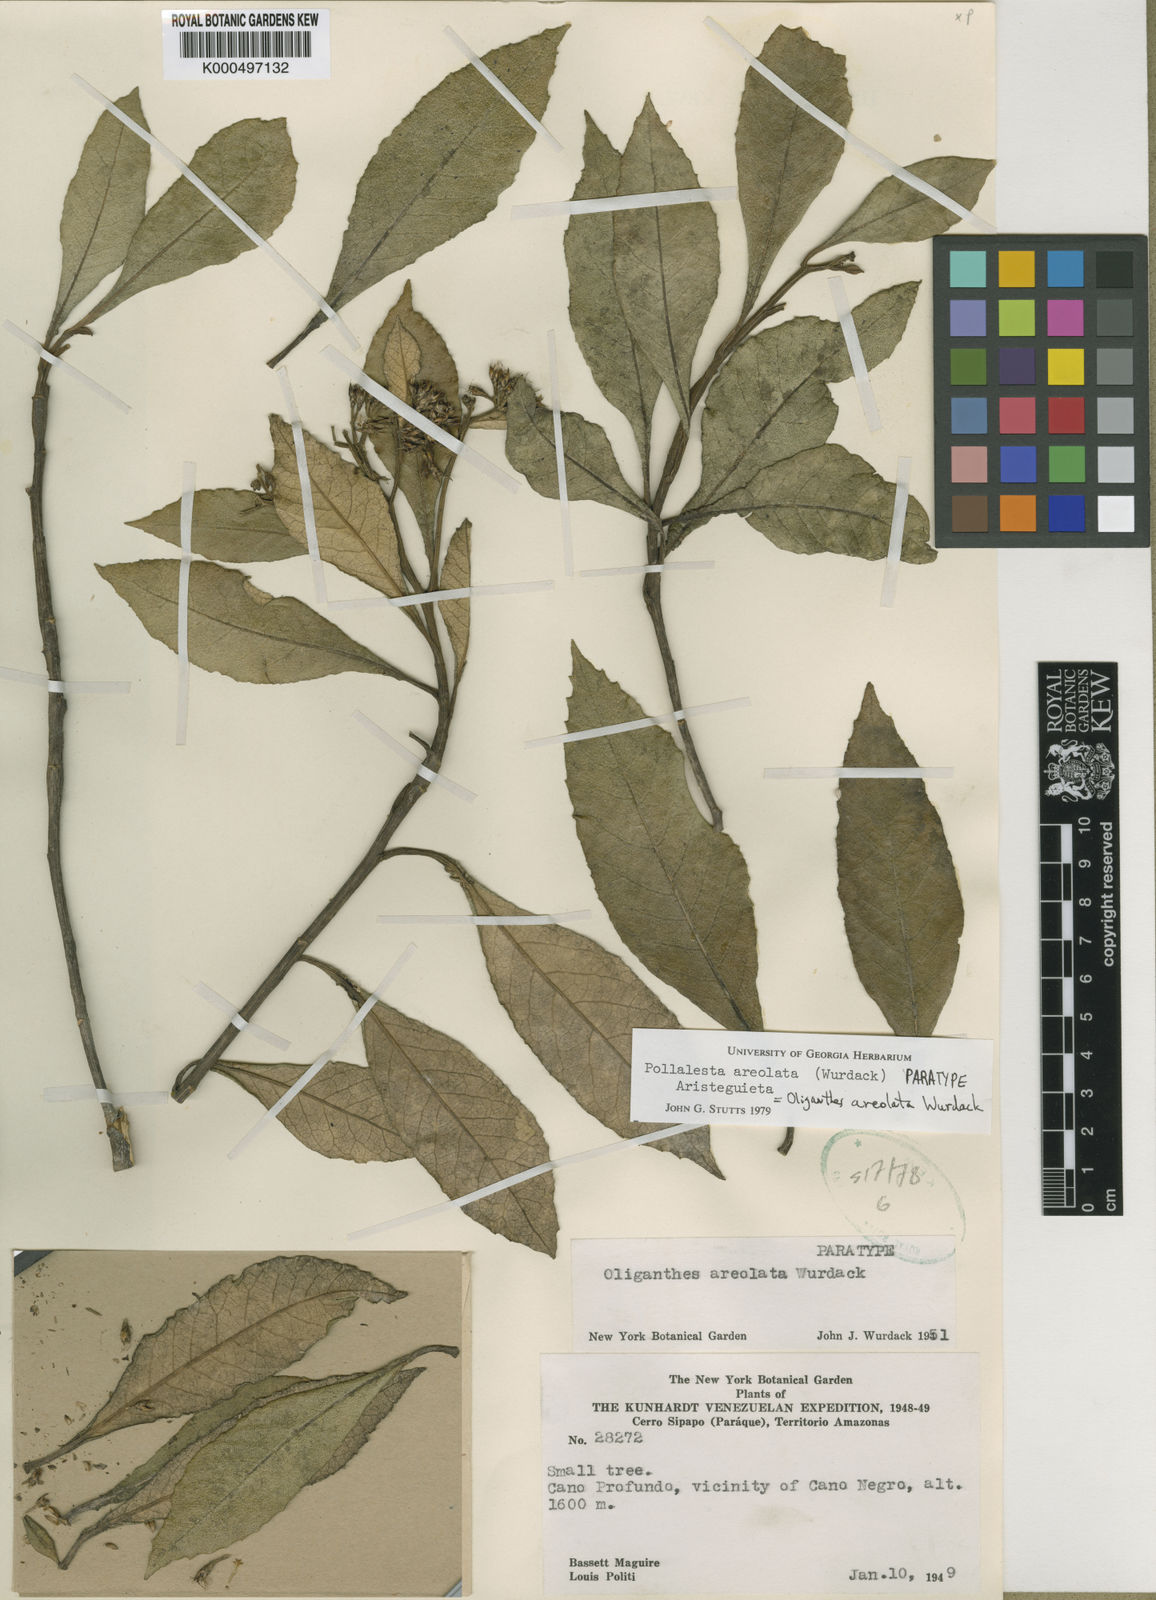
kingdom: Plantae
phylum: Tracheophyta
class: Magnoliopsida
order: Asterales
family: Asteraceae
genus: Piptocoma
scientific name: Piptocoma spruceana
